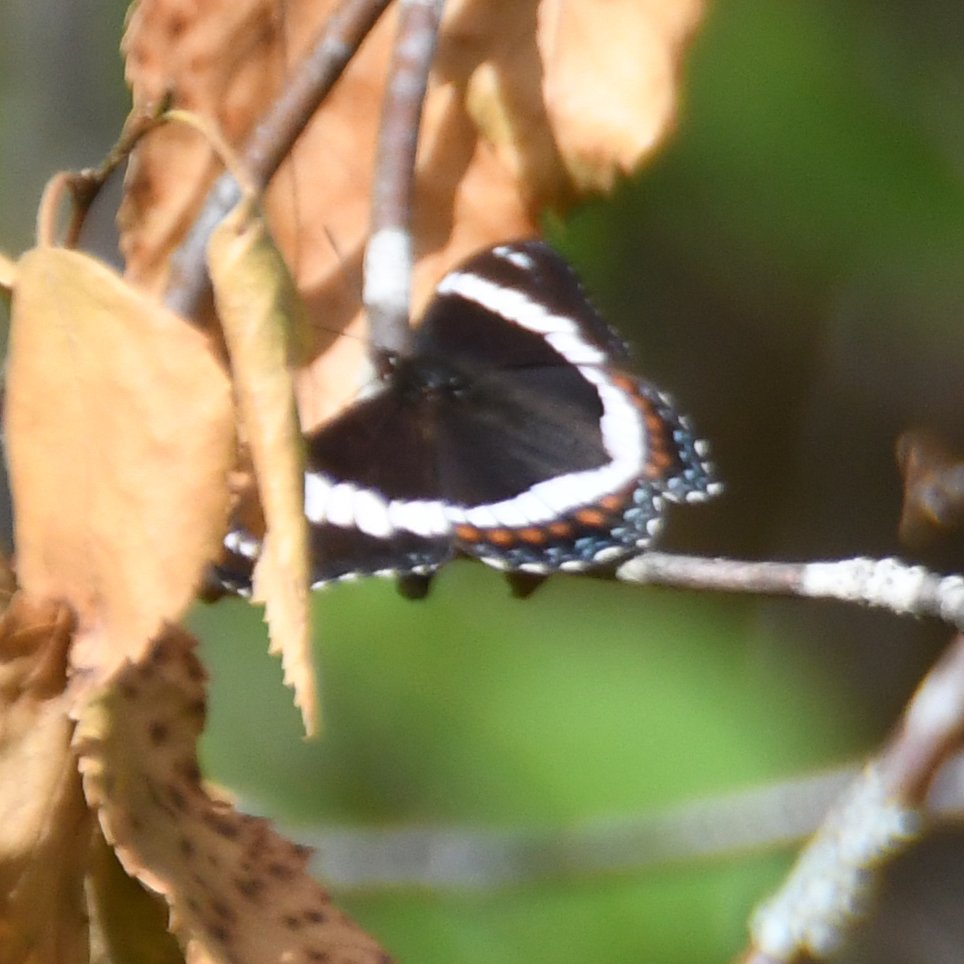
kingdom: Animalia
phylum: Arthropoda
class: Insecta
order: Lepidoptera
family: Nymphalidae
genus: Limenitis
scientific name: Limenitis arthemis
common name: Red-spotted Admiral
